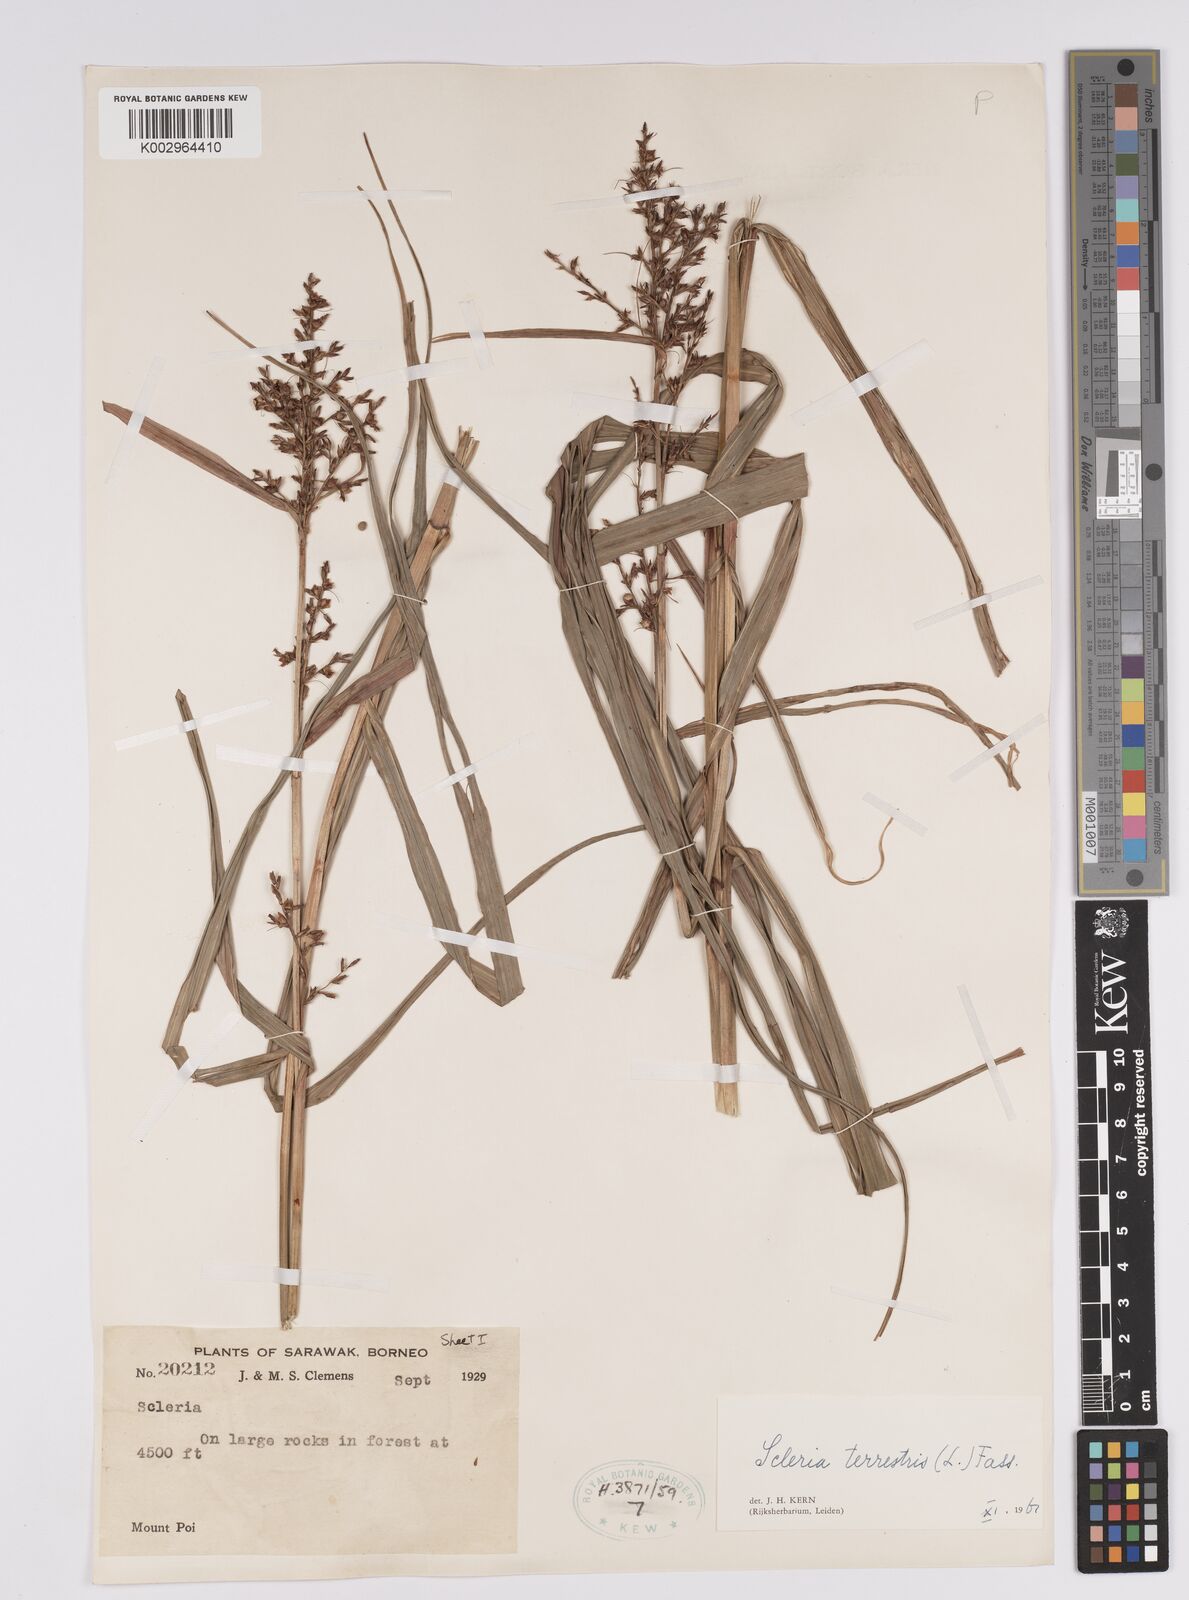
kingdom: Plantae
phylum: Tracheophyta
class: Liliopsida
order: Poales
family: Cyperaceae
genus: Scleria
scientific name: Scleria terrestris
